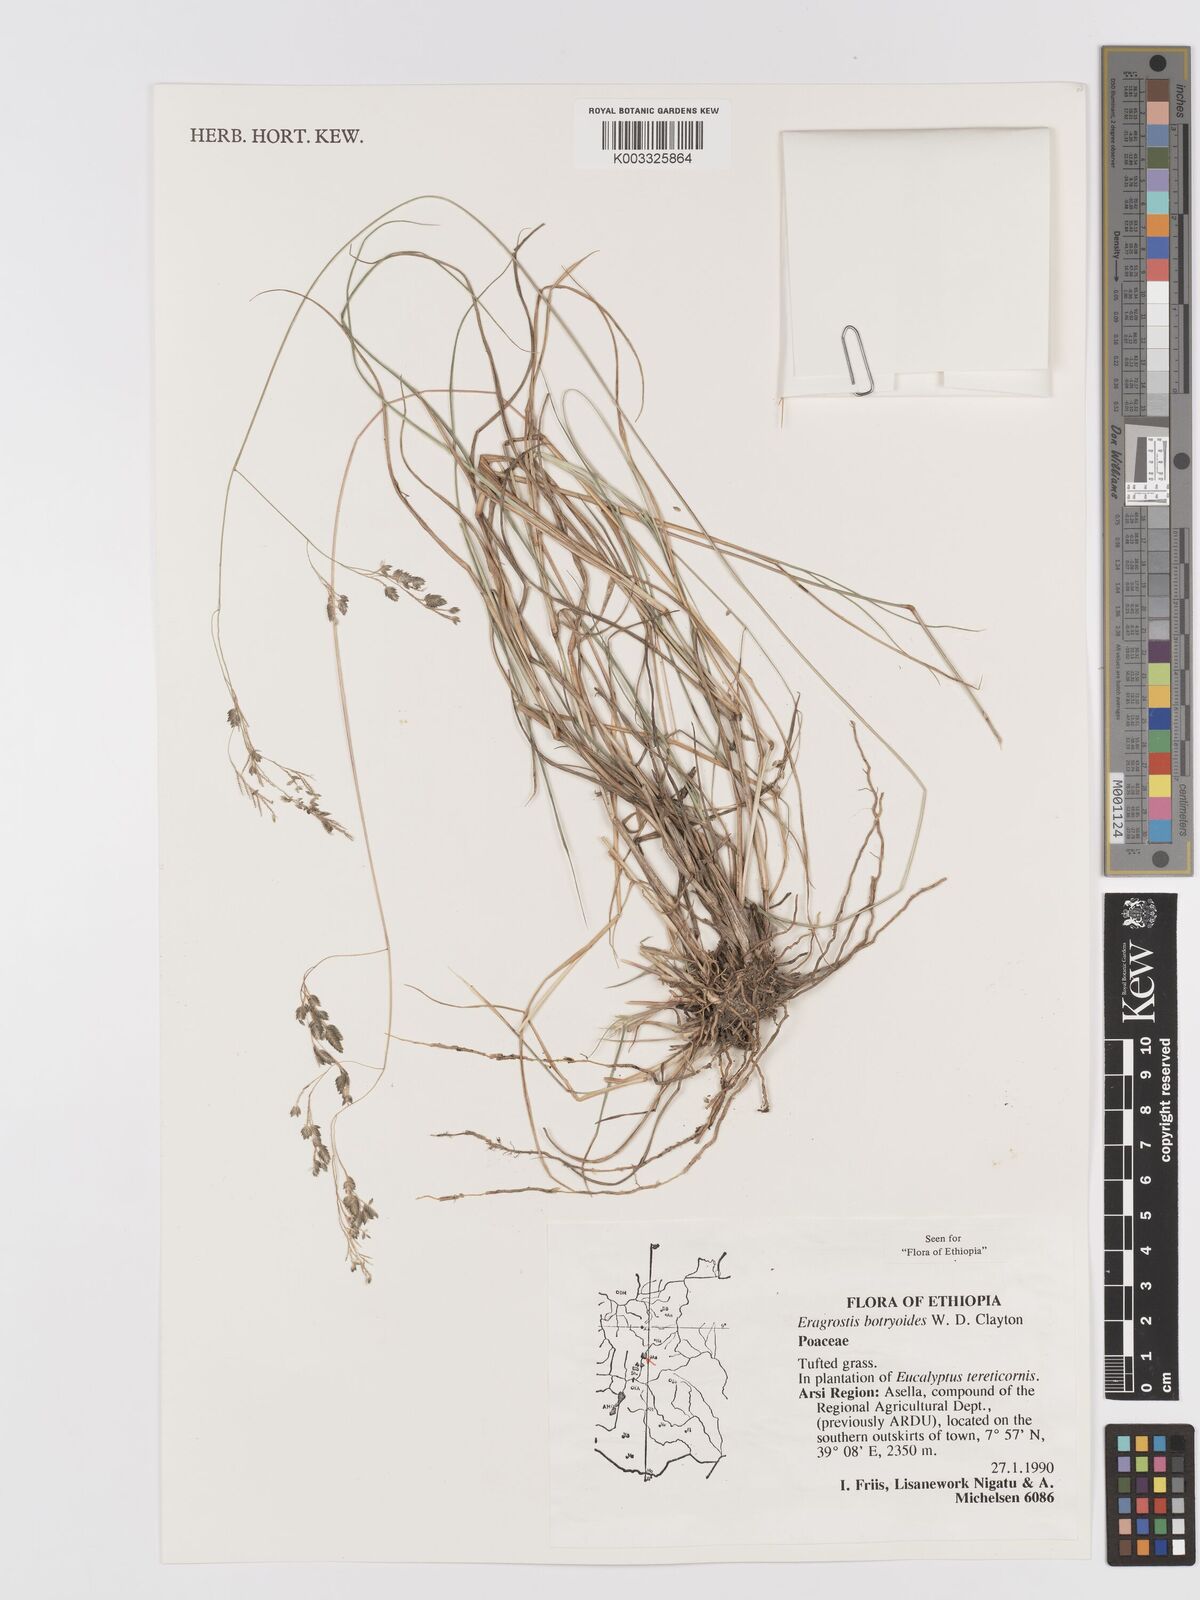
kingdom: Plantae
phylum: Tracheophyta
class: Liliopsida
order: Poales
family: Poaceae
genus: Eragrostis
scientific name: Eragrostis botryodes
